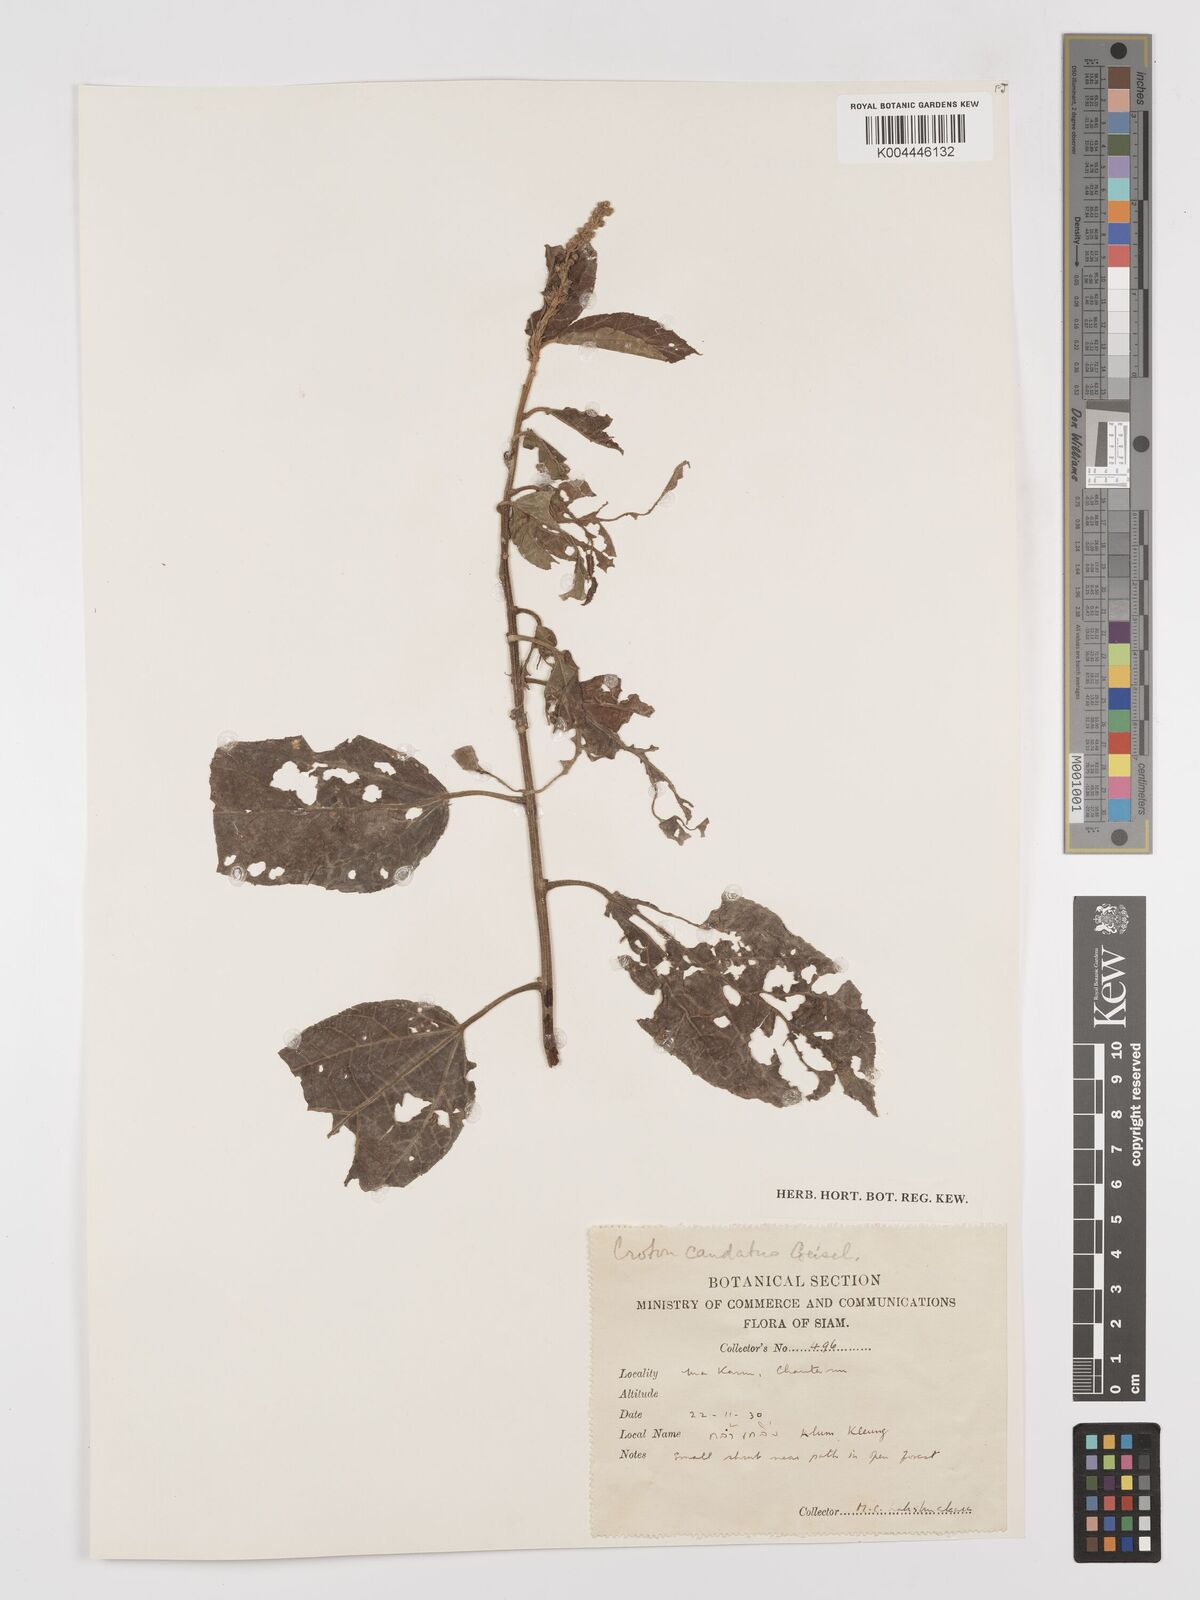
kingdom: Plantae
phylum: Tracheophyta
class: Magnoliopsida
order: Malpighiales
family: Euphorbiaceae
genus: Croton
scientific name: Croton caudatus
